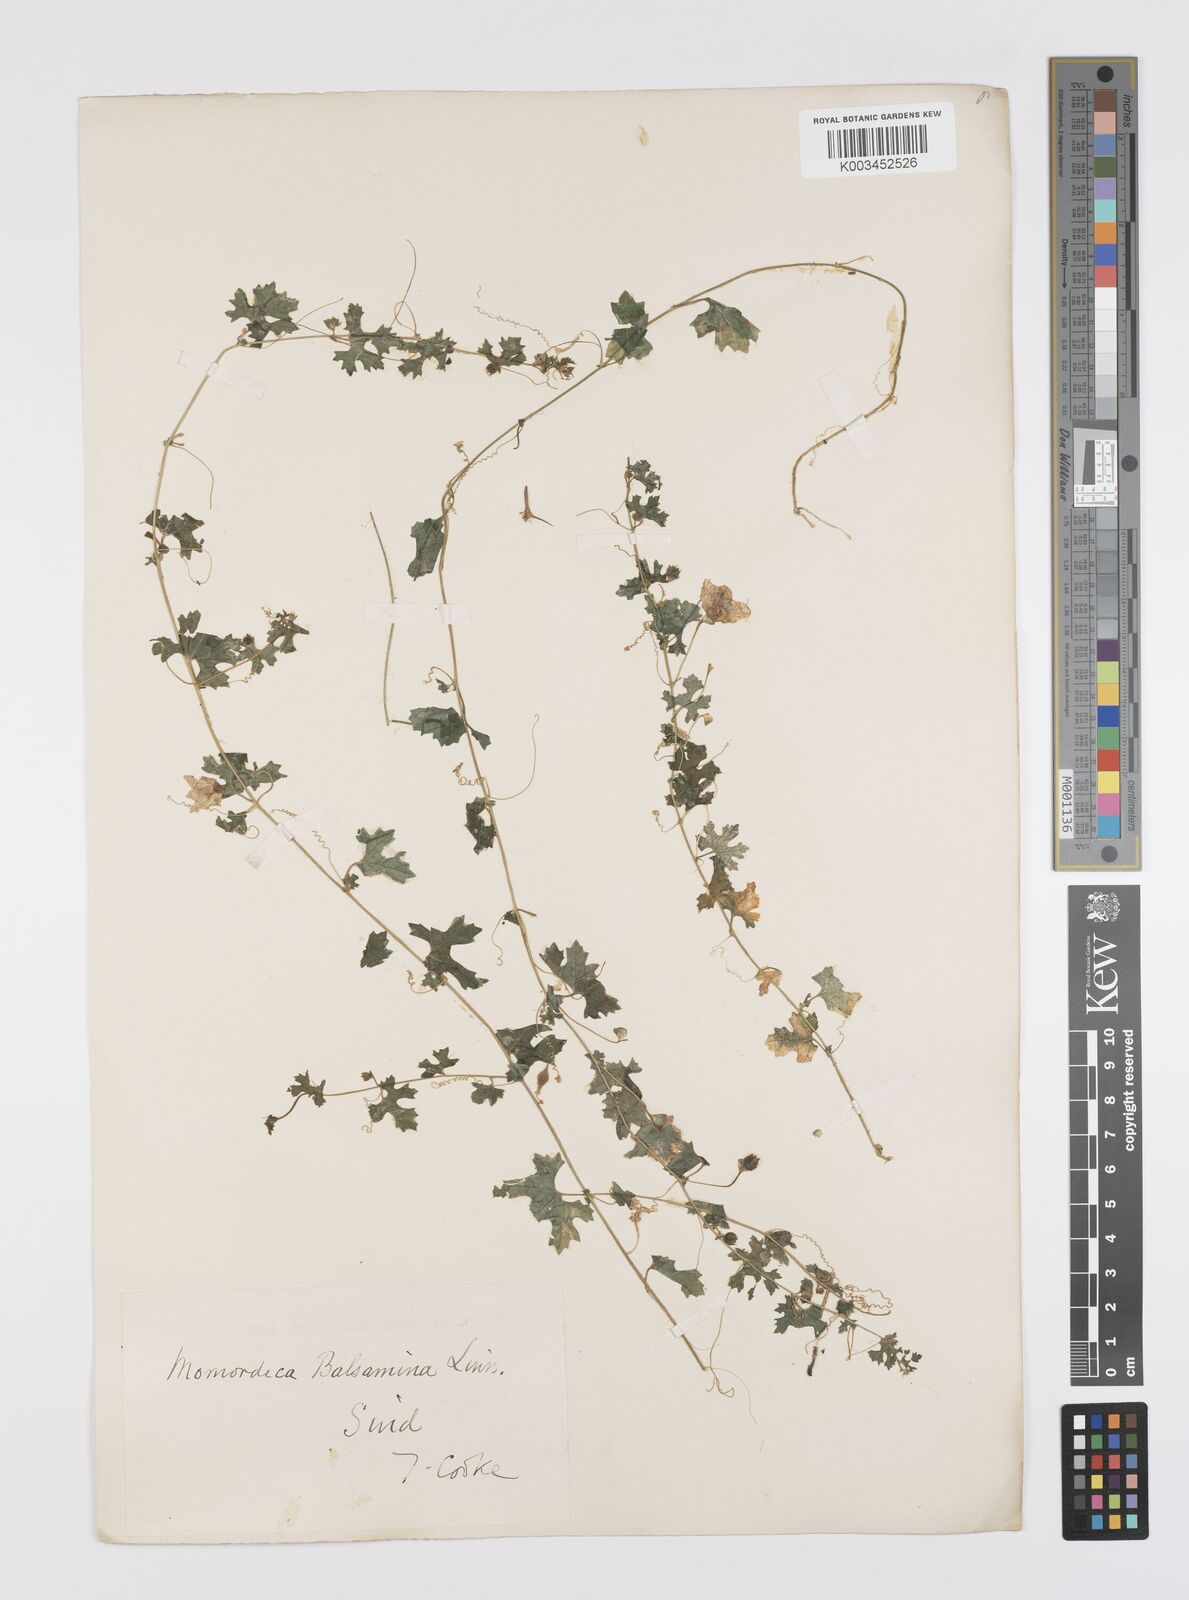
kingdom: Plantae
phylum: Tracheophyta
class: Magnoliopsida
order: Cucurbitales
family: Cucurbitaceae
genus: Momordica
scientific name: Momordica balsamina
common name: Southern balsampear
